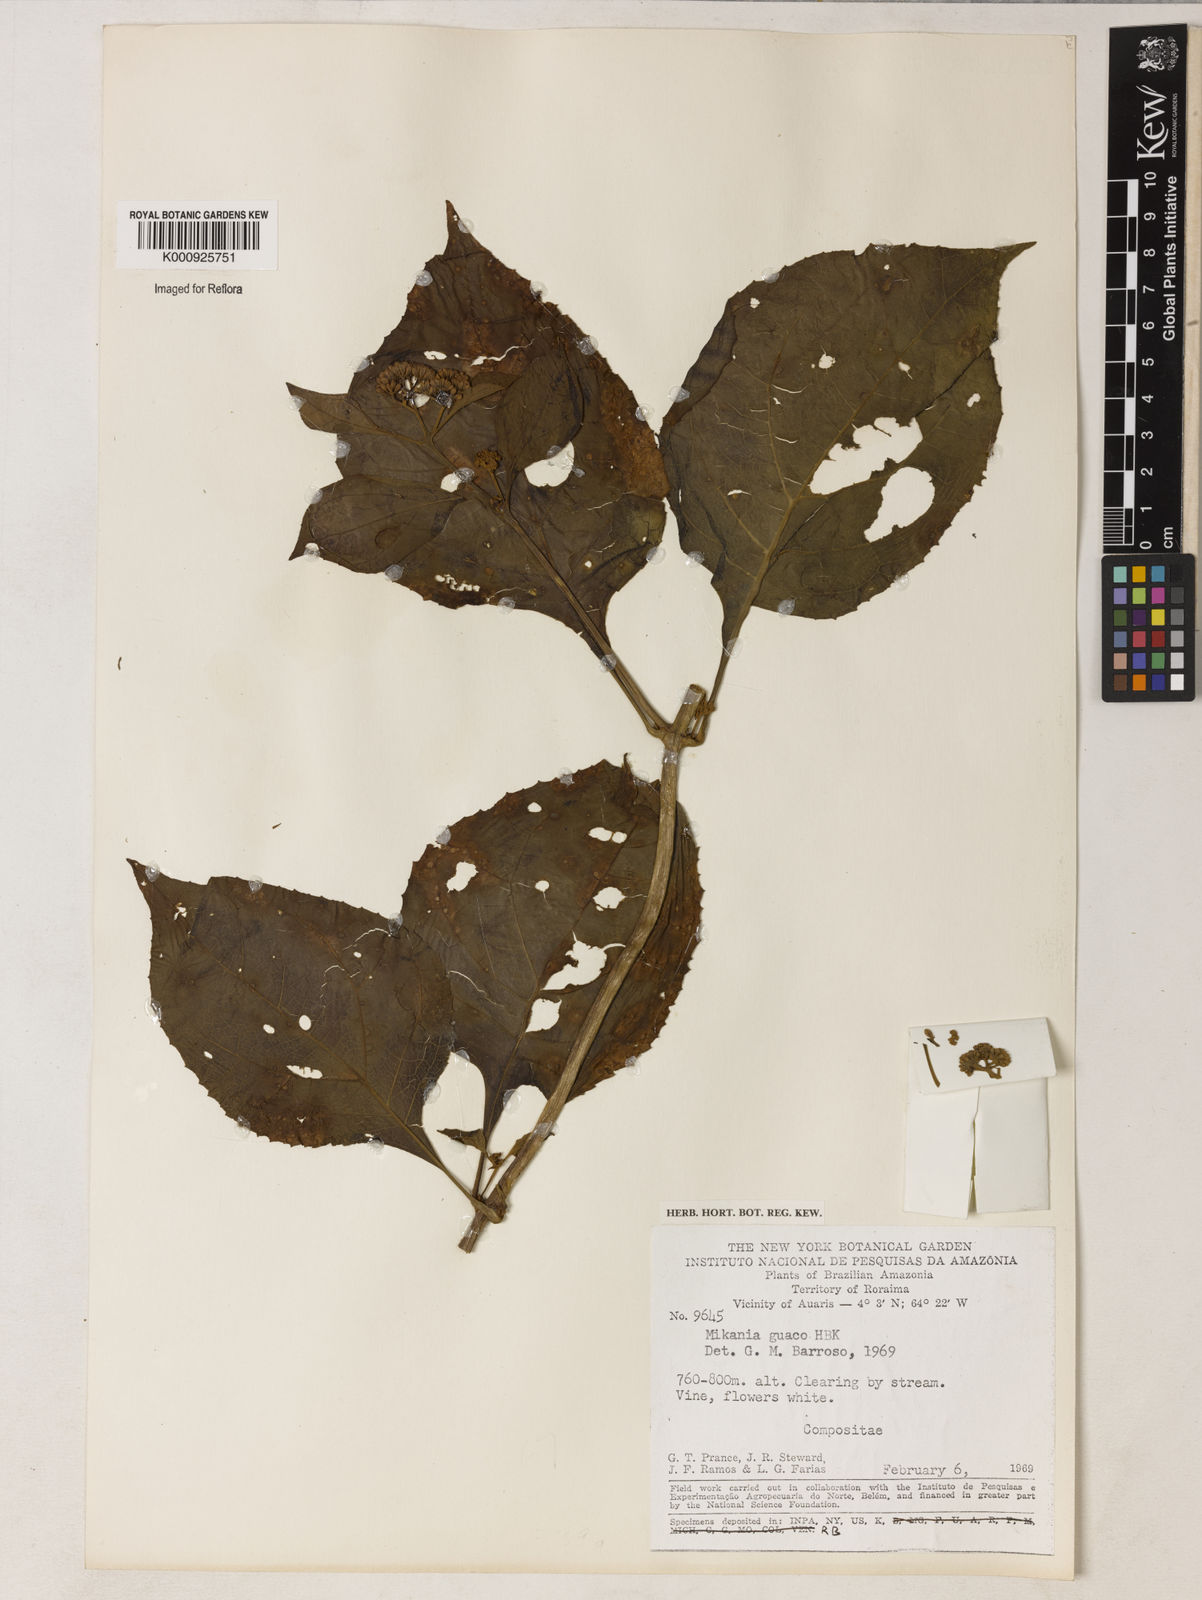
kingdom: Plantae
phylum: Tracheophyta
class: Magnoliopsida
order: Asterales
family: Asteraceae
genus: Mikania
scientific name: Mikania guaco
